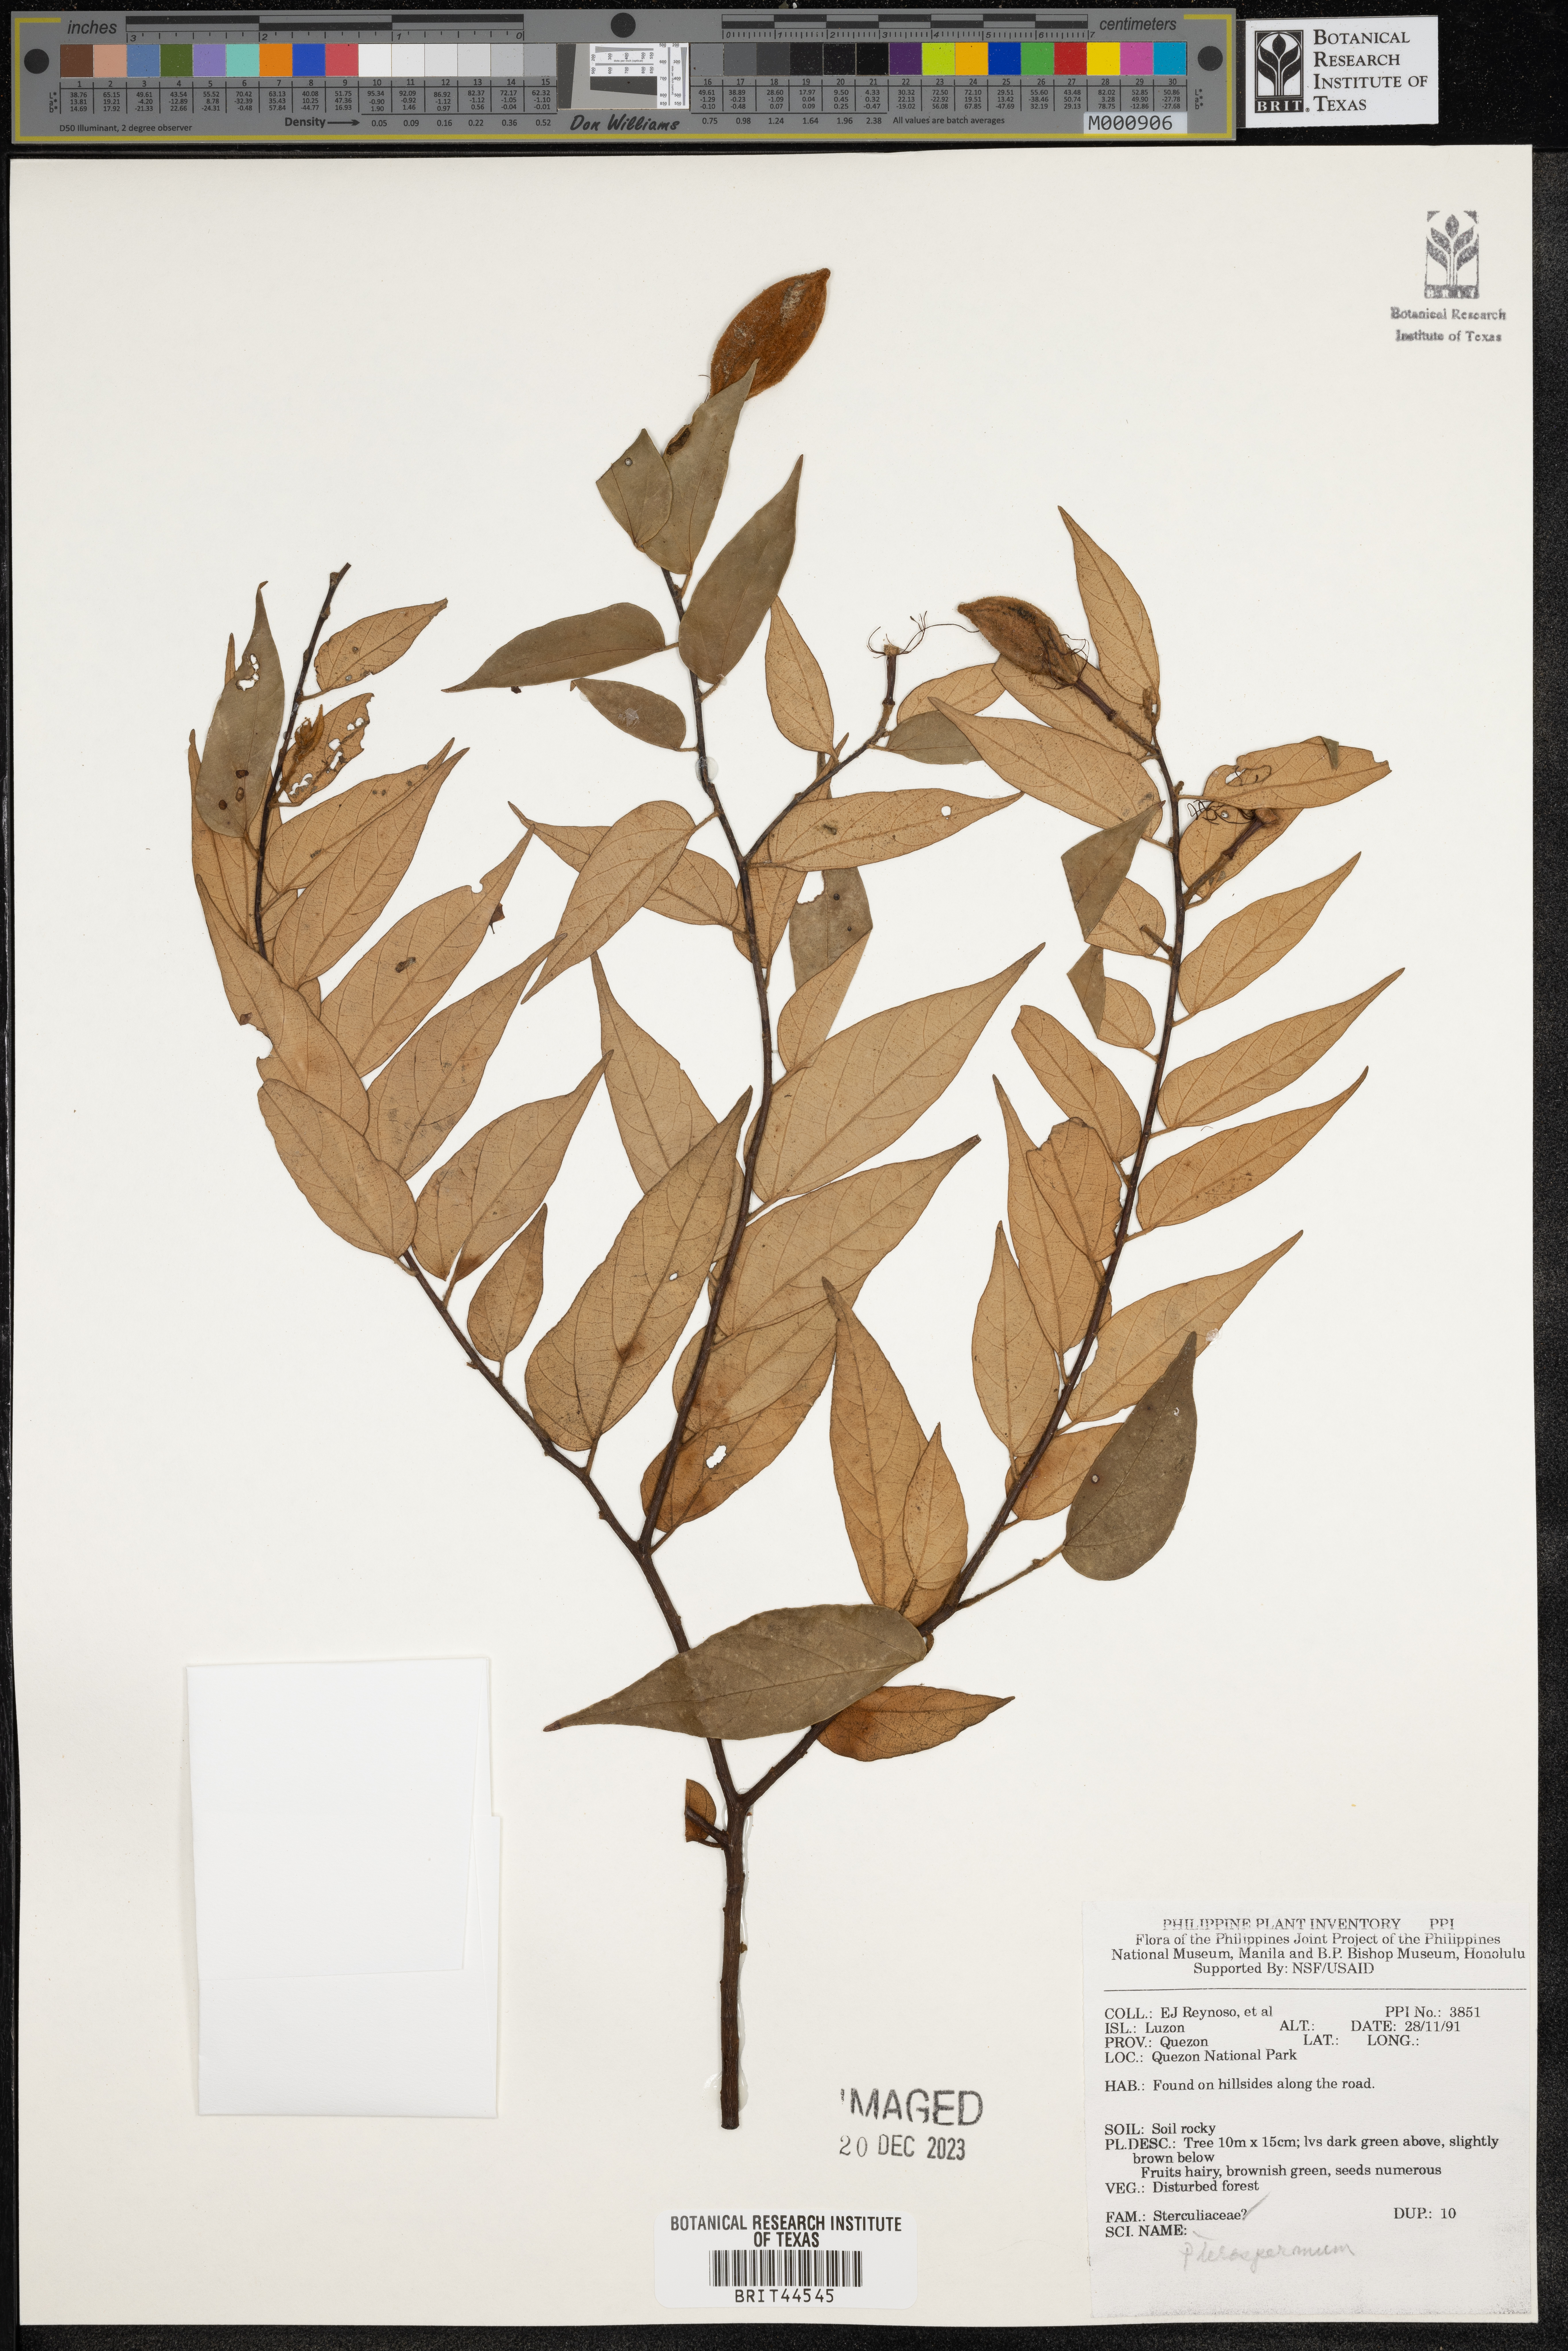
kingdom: Plantae
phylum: Tracheophyta
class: Magnoliopsida
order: Malvales
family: Malvaceae
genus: Pterospermum
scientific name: Pterospermum
